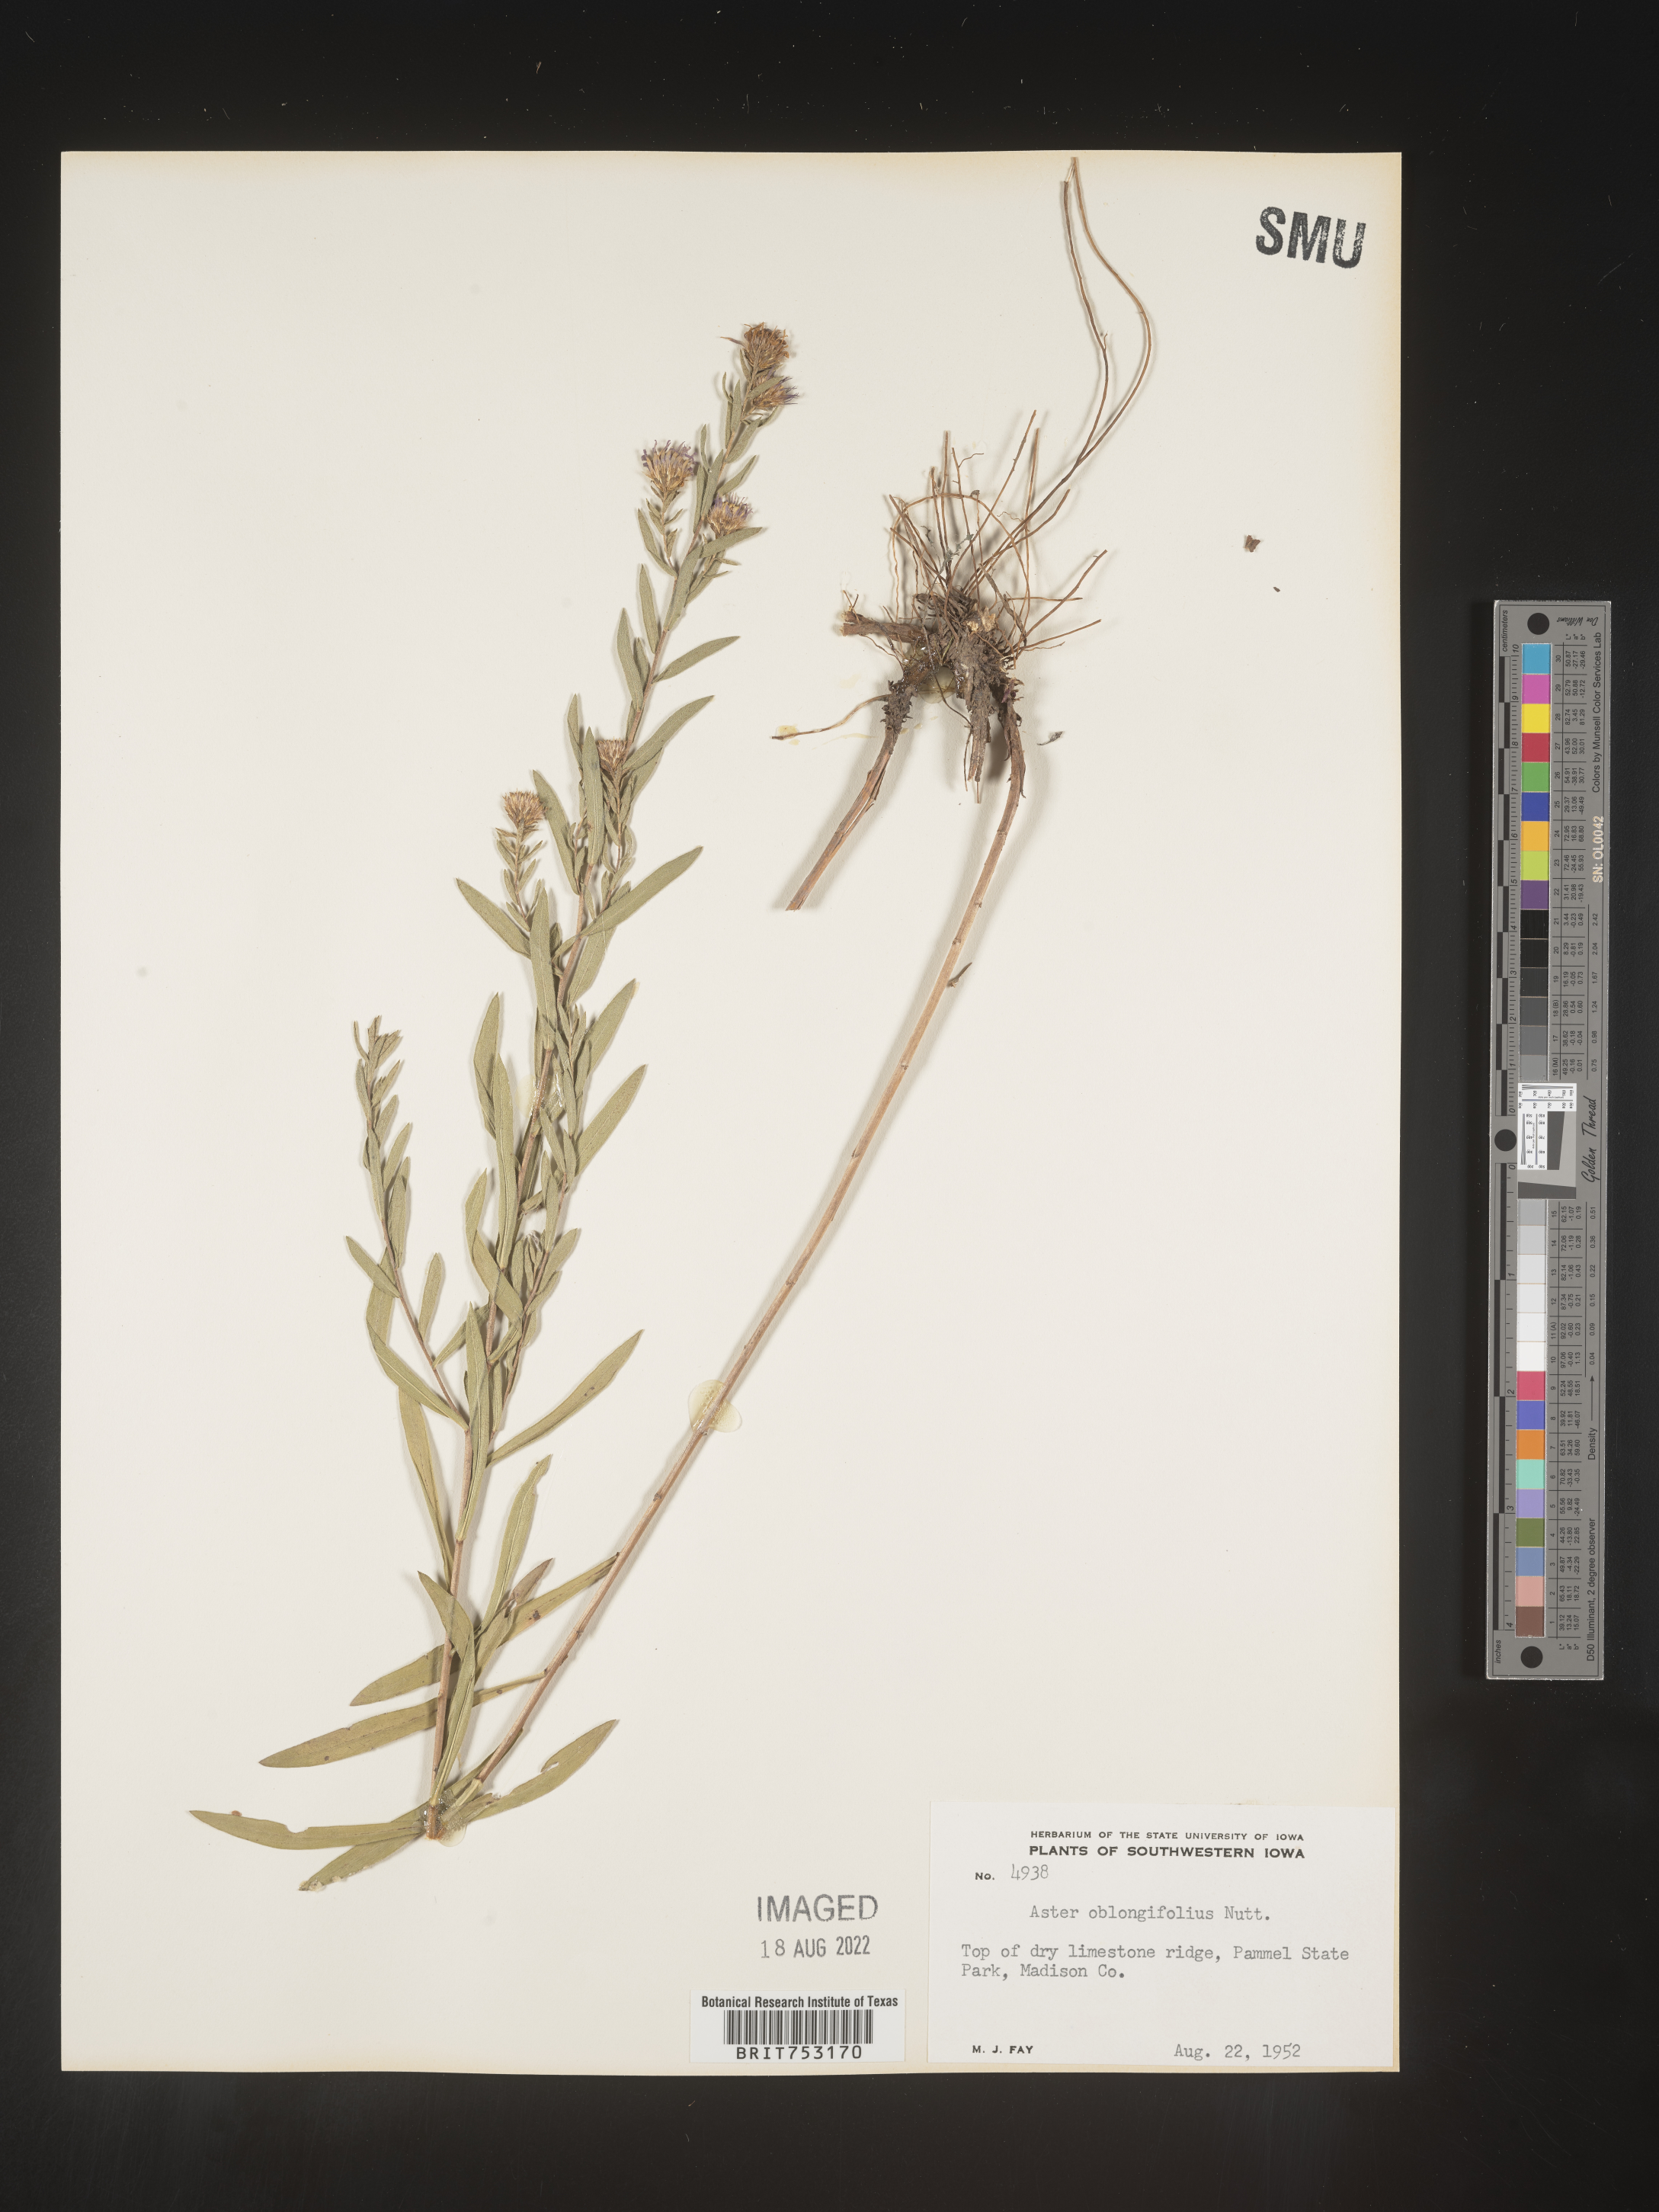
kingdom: Plantae
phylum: Tracheophyta
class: Magnoliopsida
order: Asterales
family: Asteraceae
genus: Symphyotrichum
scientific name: Symphyotrichum oblongifolium
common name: Aromatic aster
